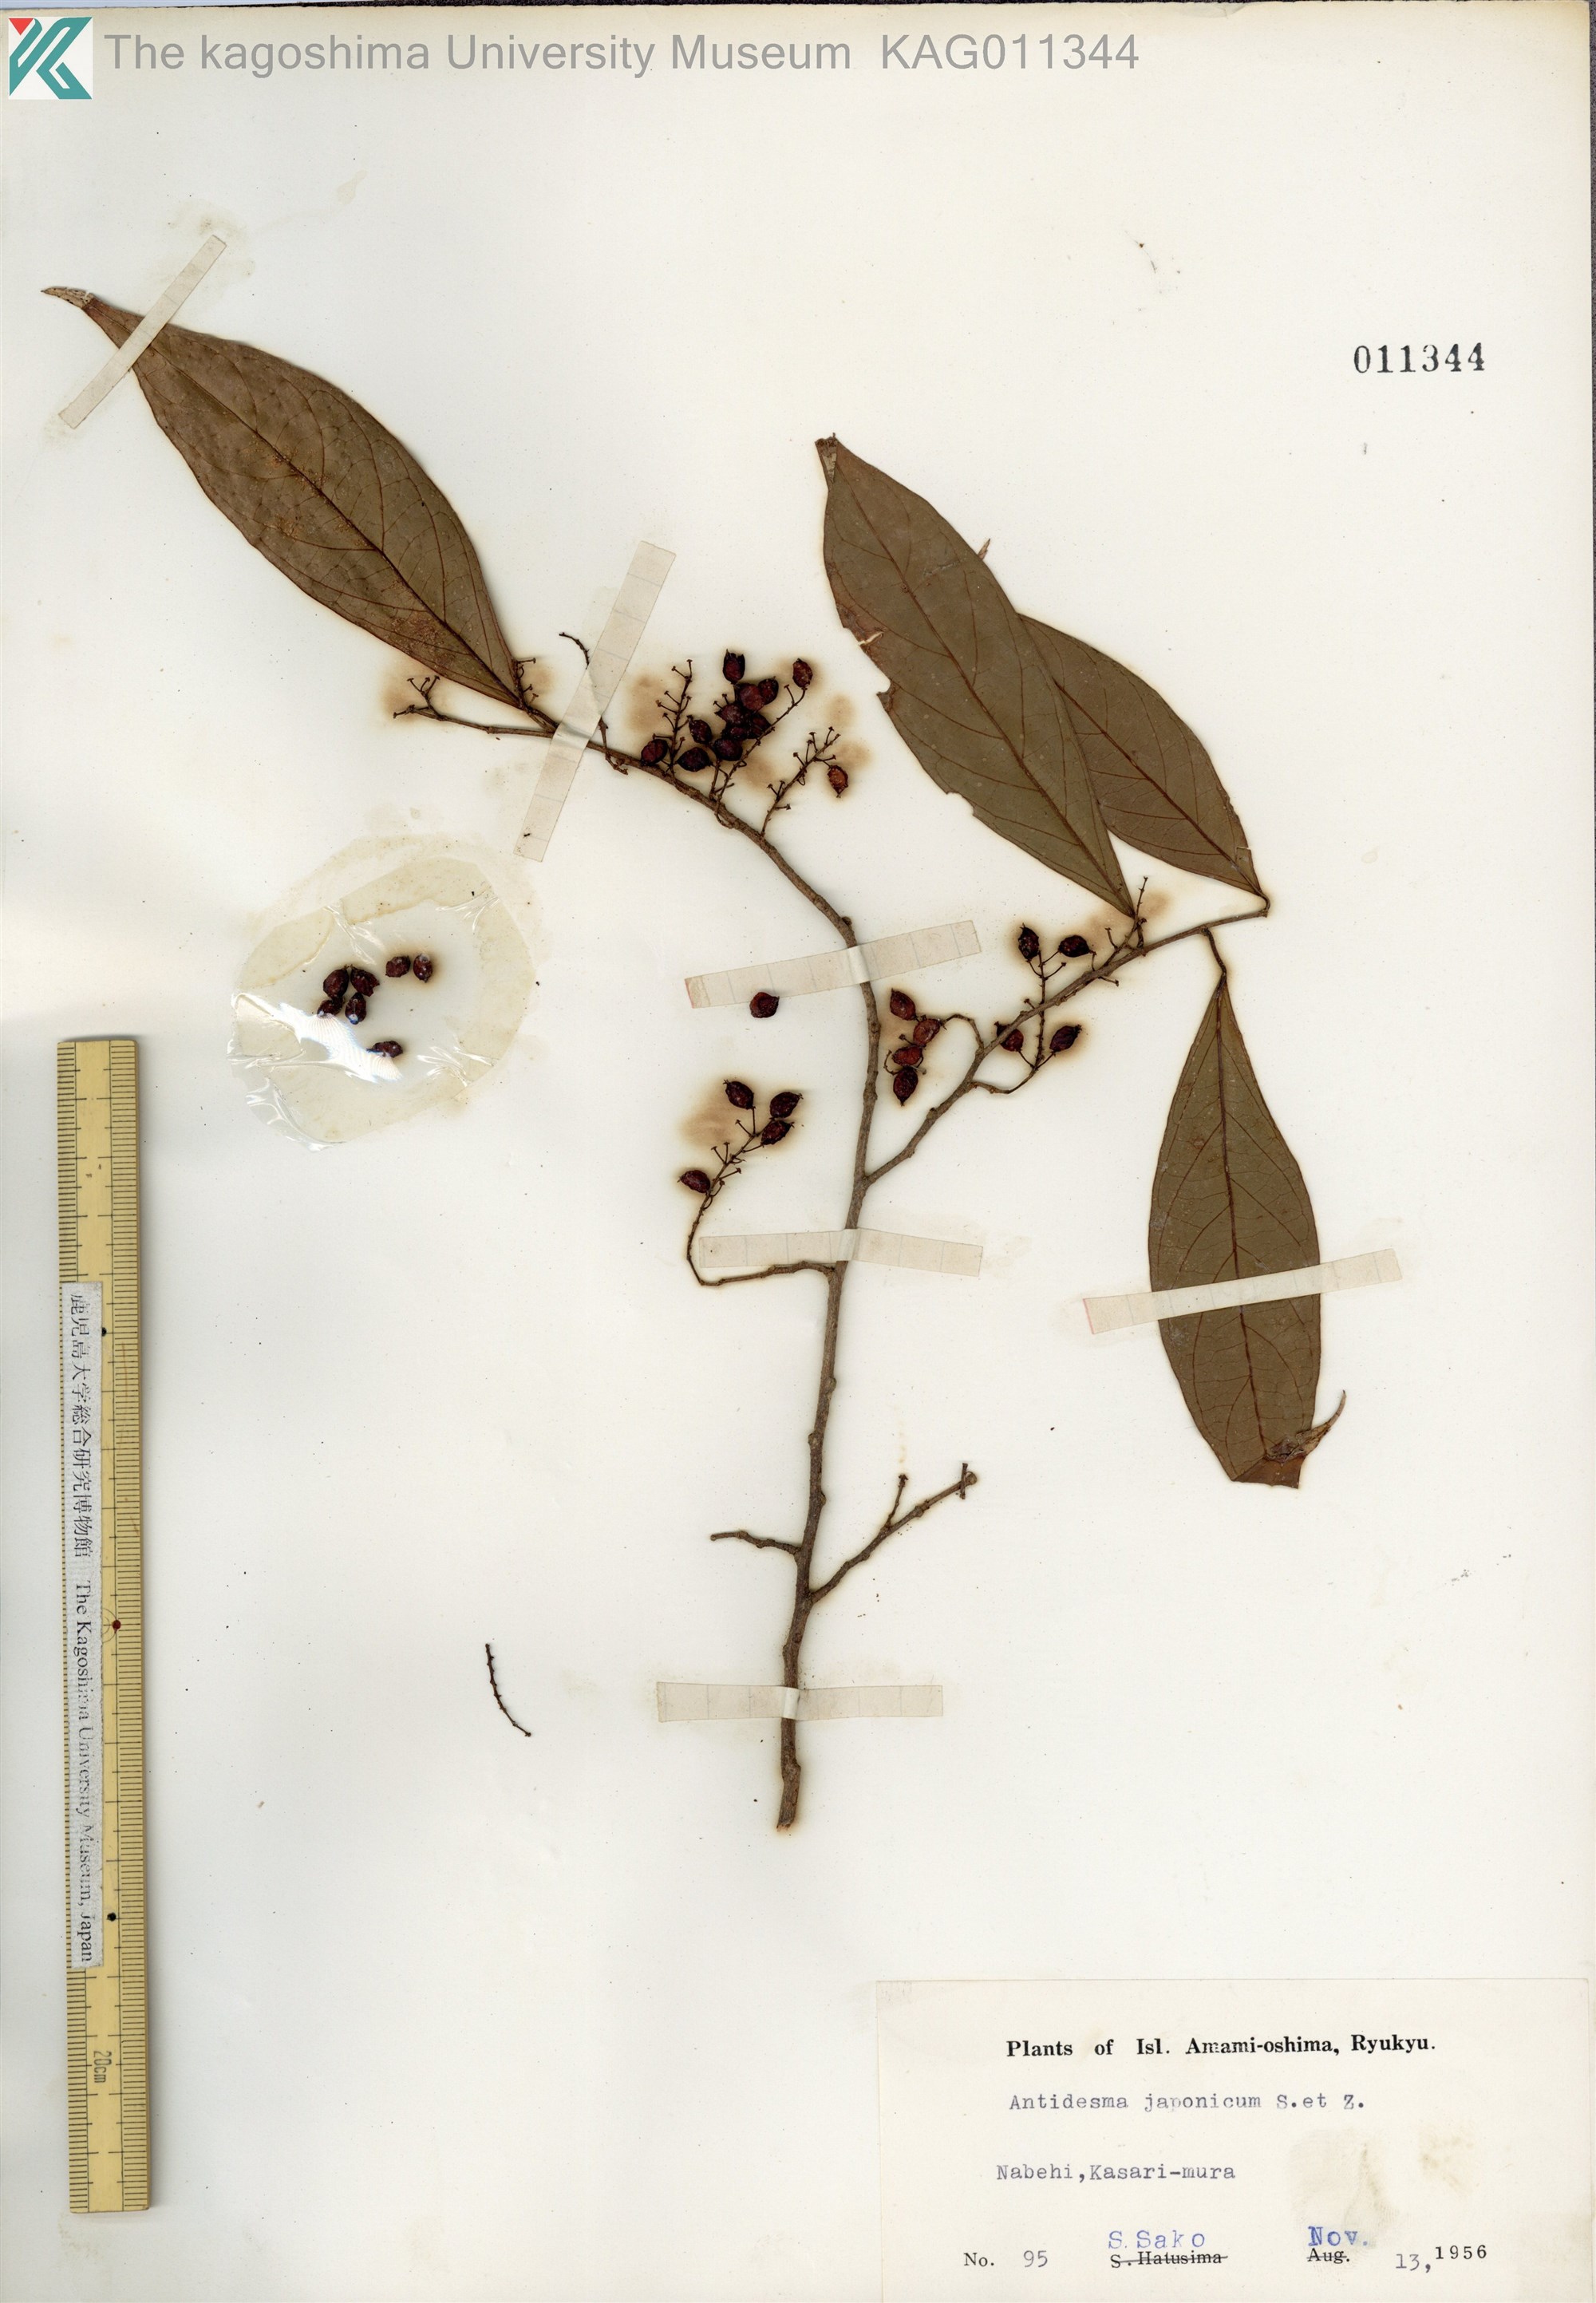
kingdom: Plantae
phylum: Tracheophyta
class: Magnoliopsida
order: Malpighiales
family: Phyllanthaceae
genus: Antidesma
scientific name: Antidesma japonicum
